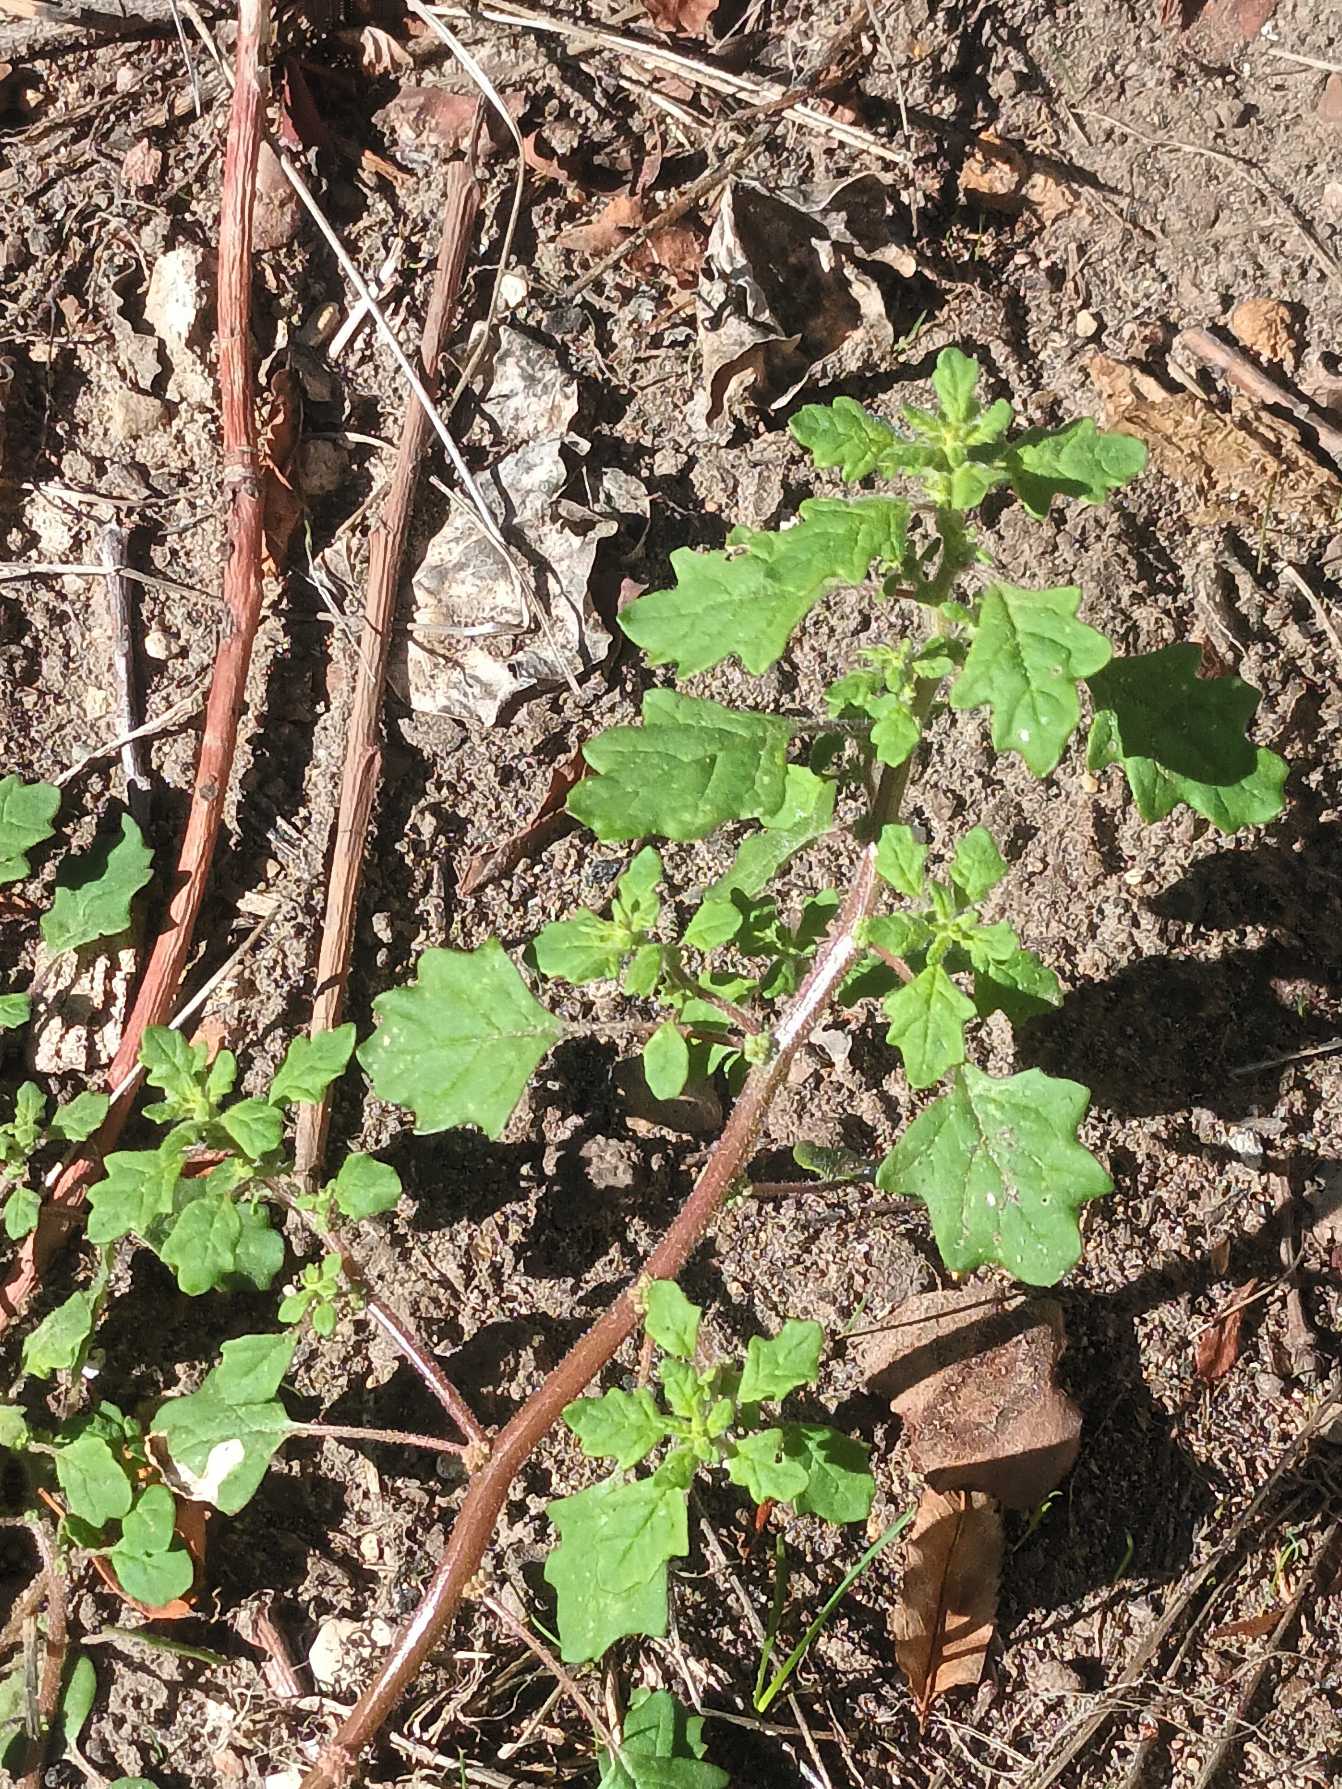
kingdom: Plantae
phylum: Tracheophyta
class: Magnoliopsida
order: Caryophyllales
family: Amaranthaceae
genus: Dysphania
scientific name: Dysphania carinata
